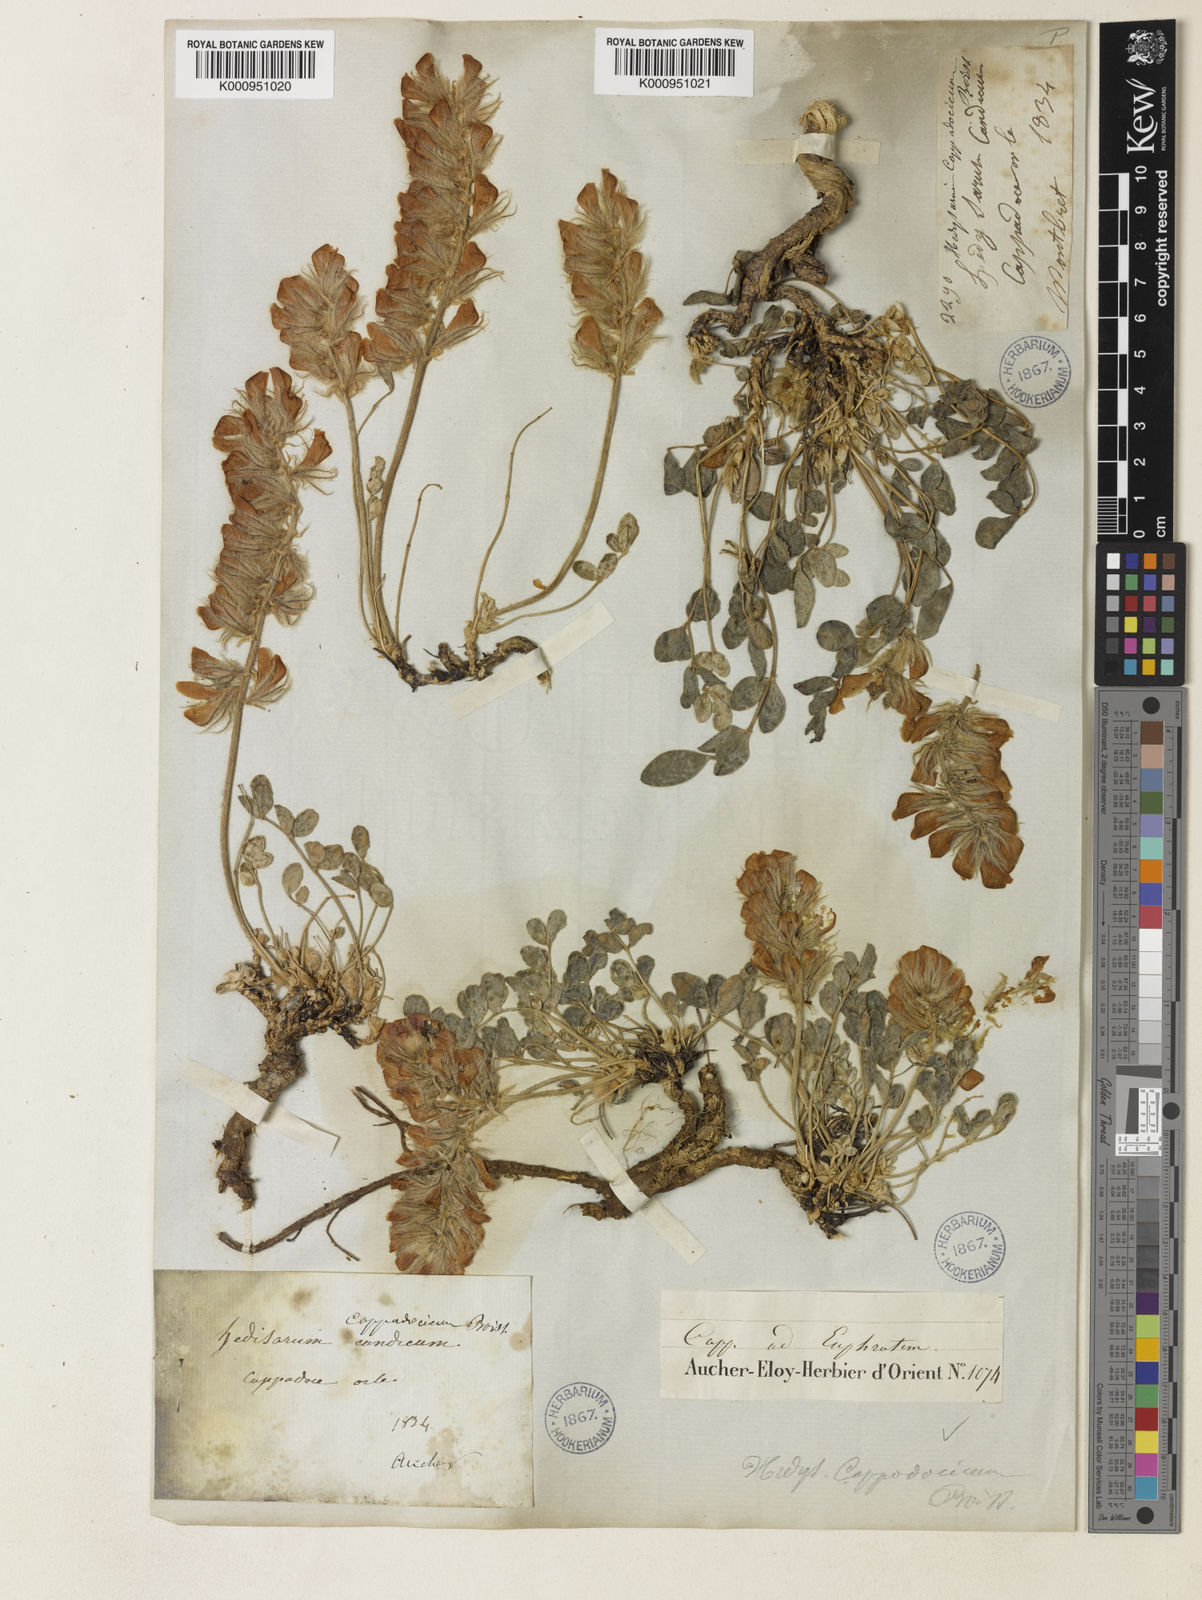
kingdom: Plantae
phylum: Tracheophyta
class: Magnoliopsida
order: Fabales
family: Fabaceae
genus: Hedysarum
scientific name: Hedysarum grandiflorum
